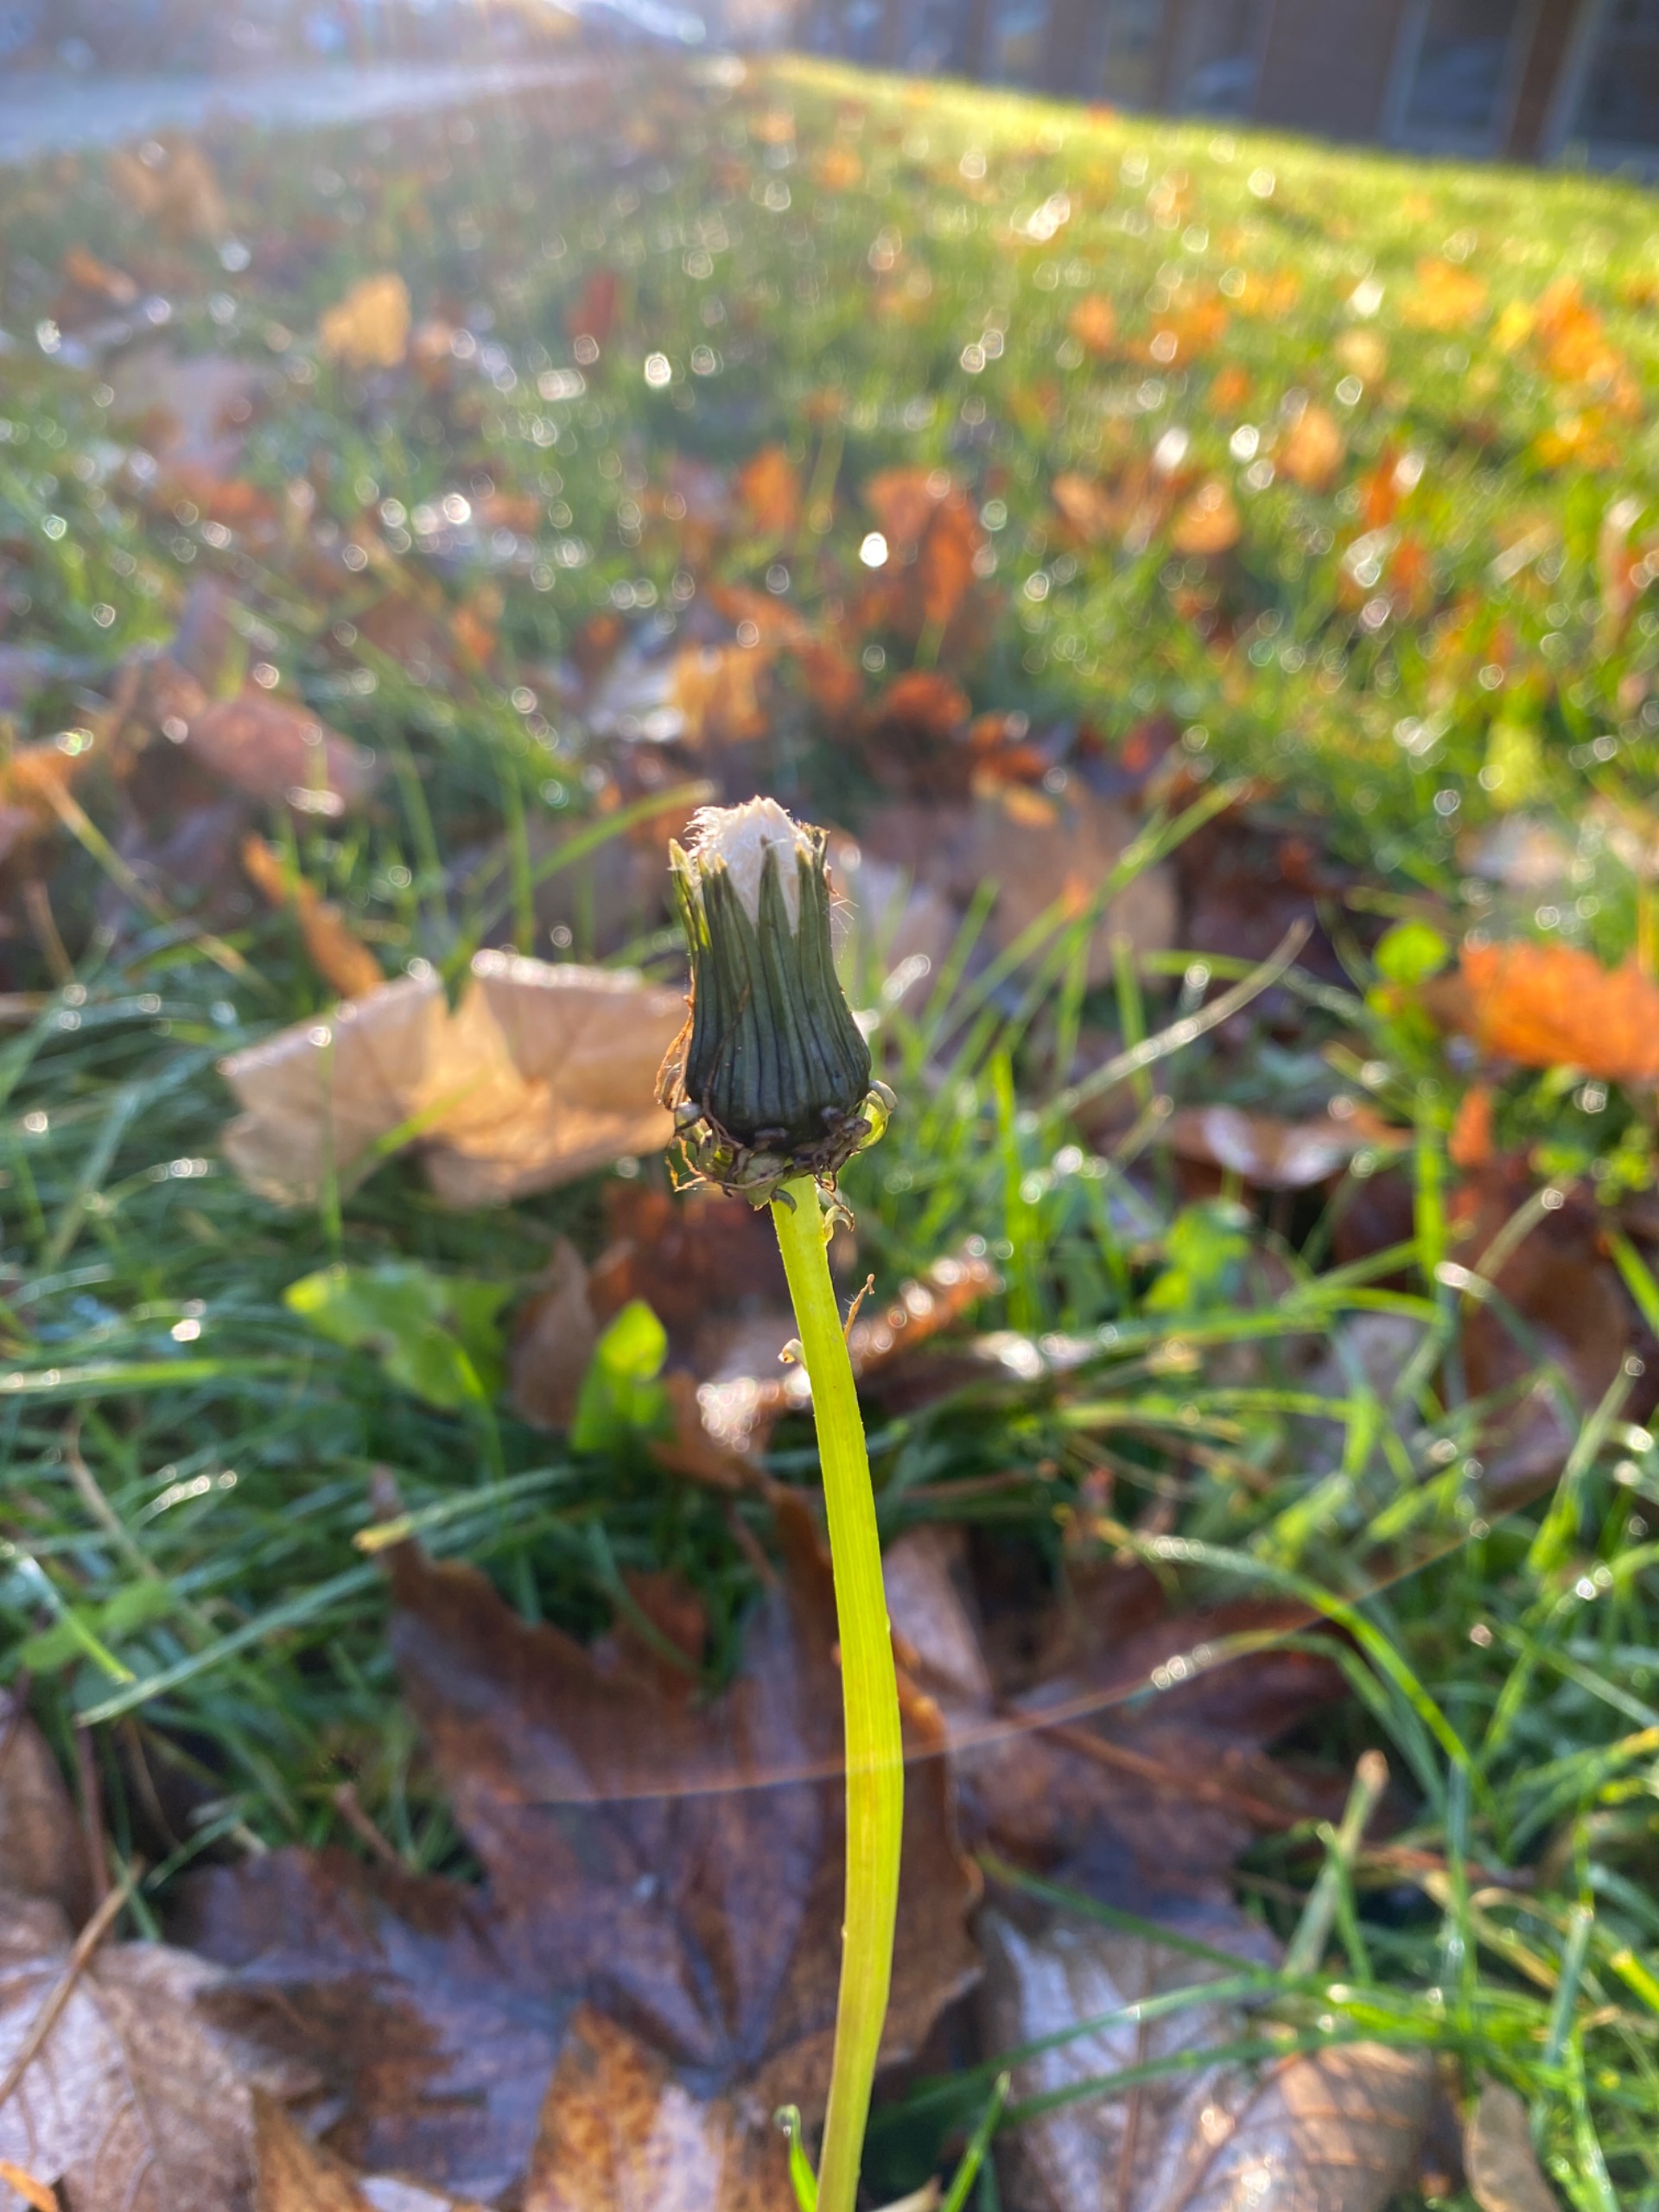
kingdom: Plantae
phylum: Tracheophyta
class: Magnoliopsida
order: Asterales
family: Asteraceae
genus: Taraxacum
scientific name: Taraxacum
